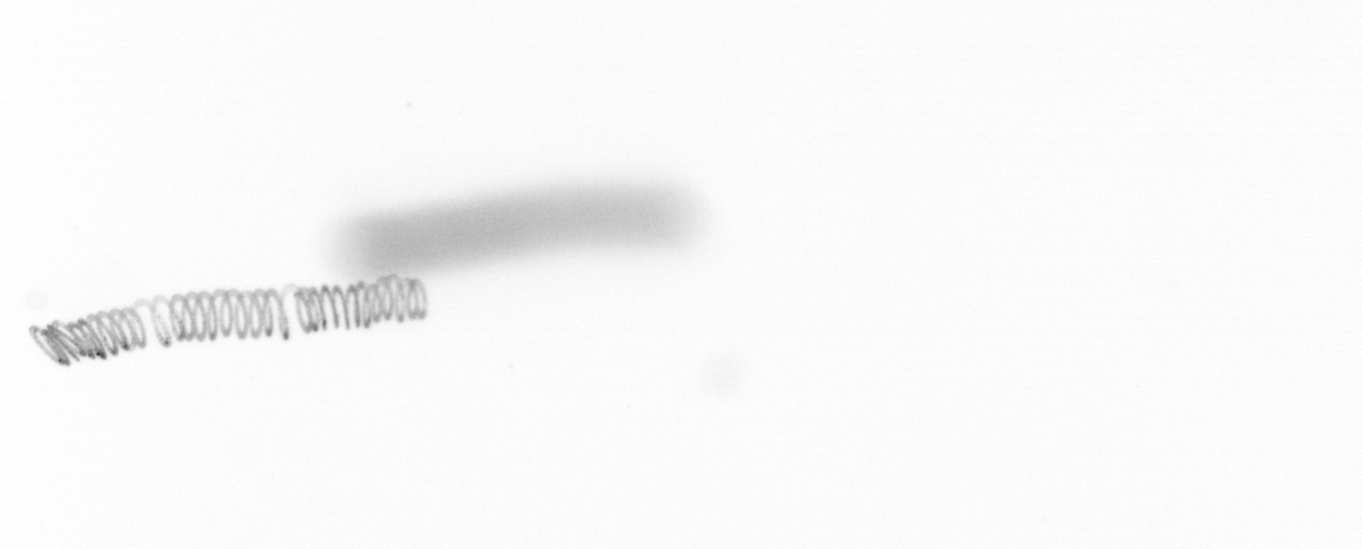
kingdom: Chromista
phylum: Ochrophyta
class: Bacillariophyceae
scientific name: Bacillariophyceae
